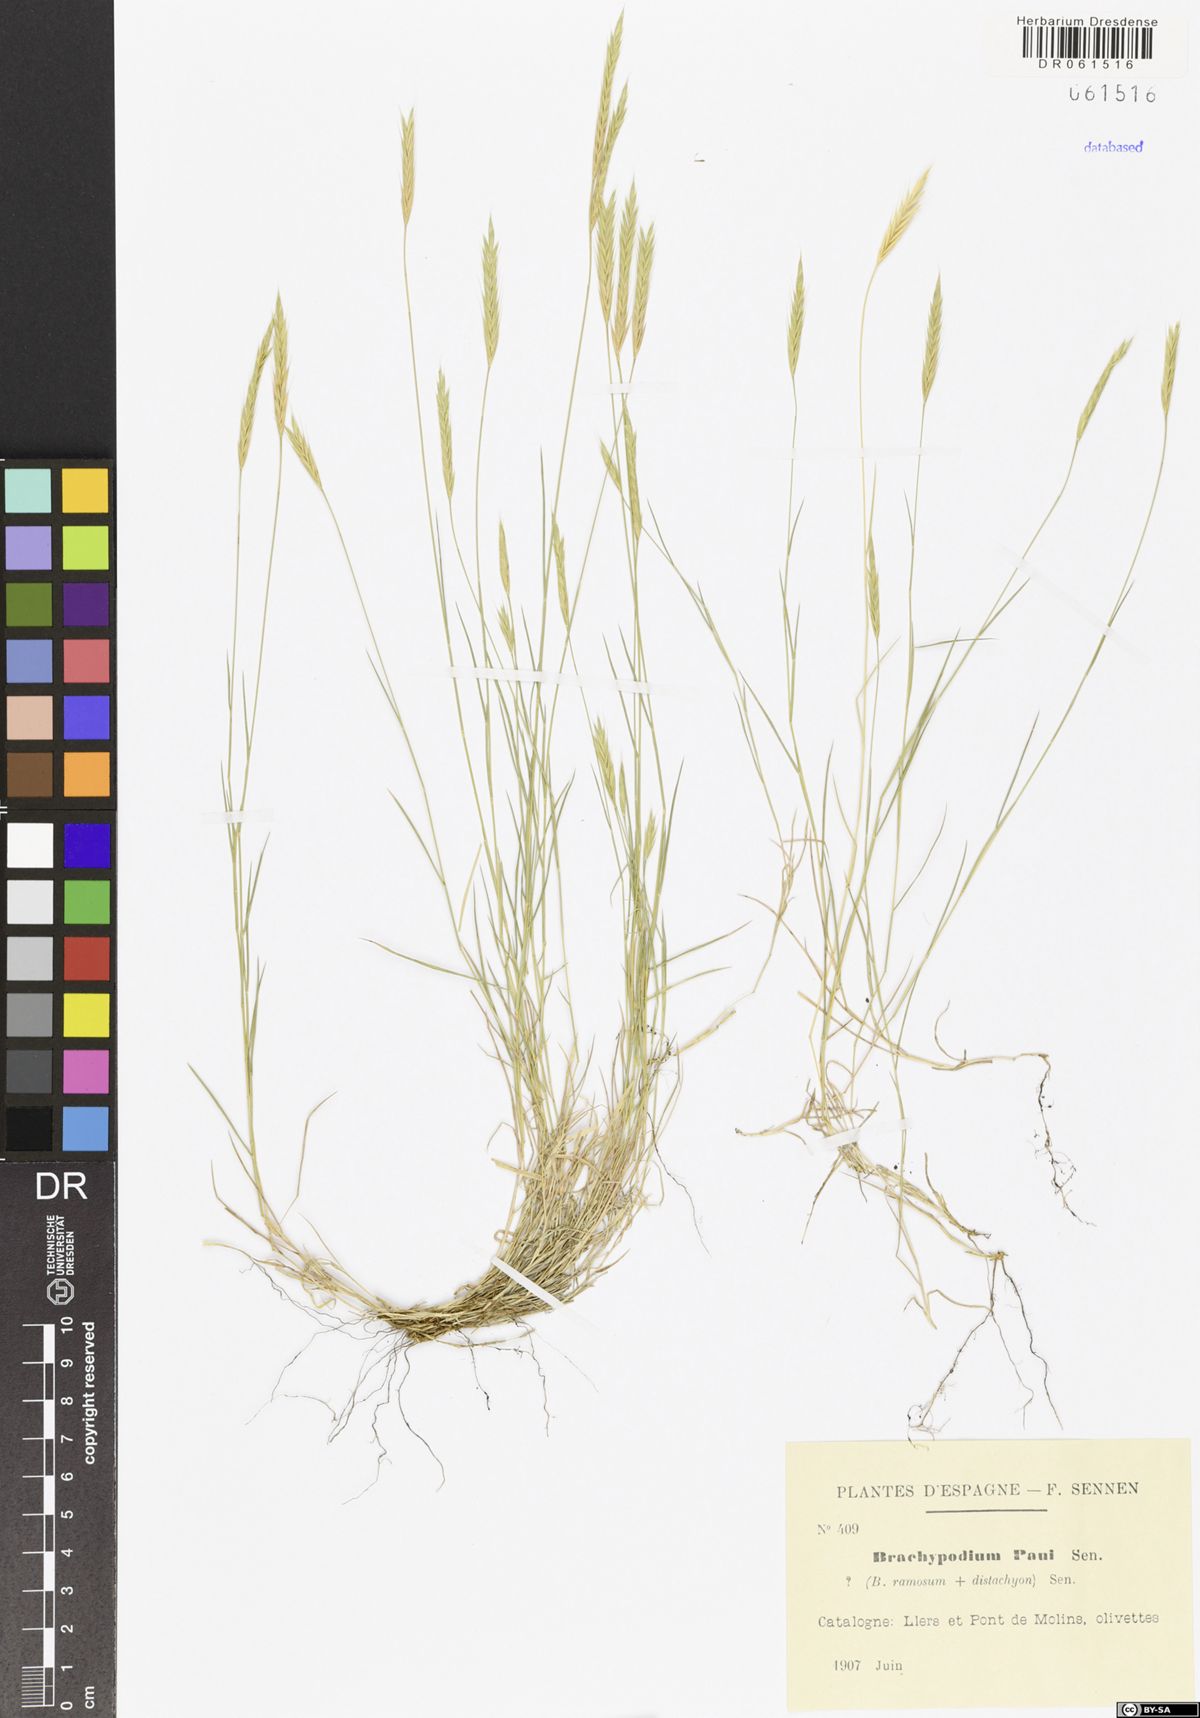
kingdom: Plantae
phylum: Tracheophyta
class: Liliopsida
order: Poales
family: Poaceae
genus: Brachypodium
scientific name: Brachypodium distachyon
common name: Stiff brome
